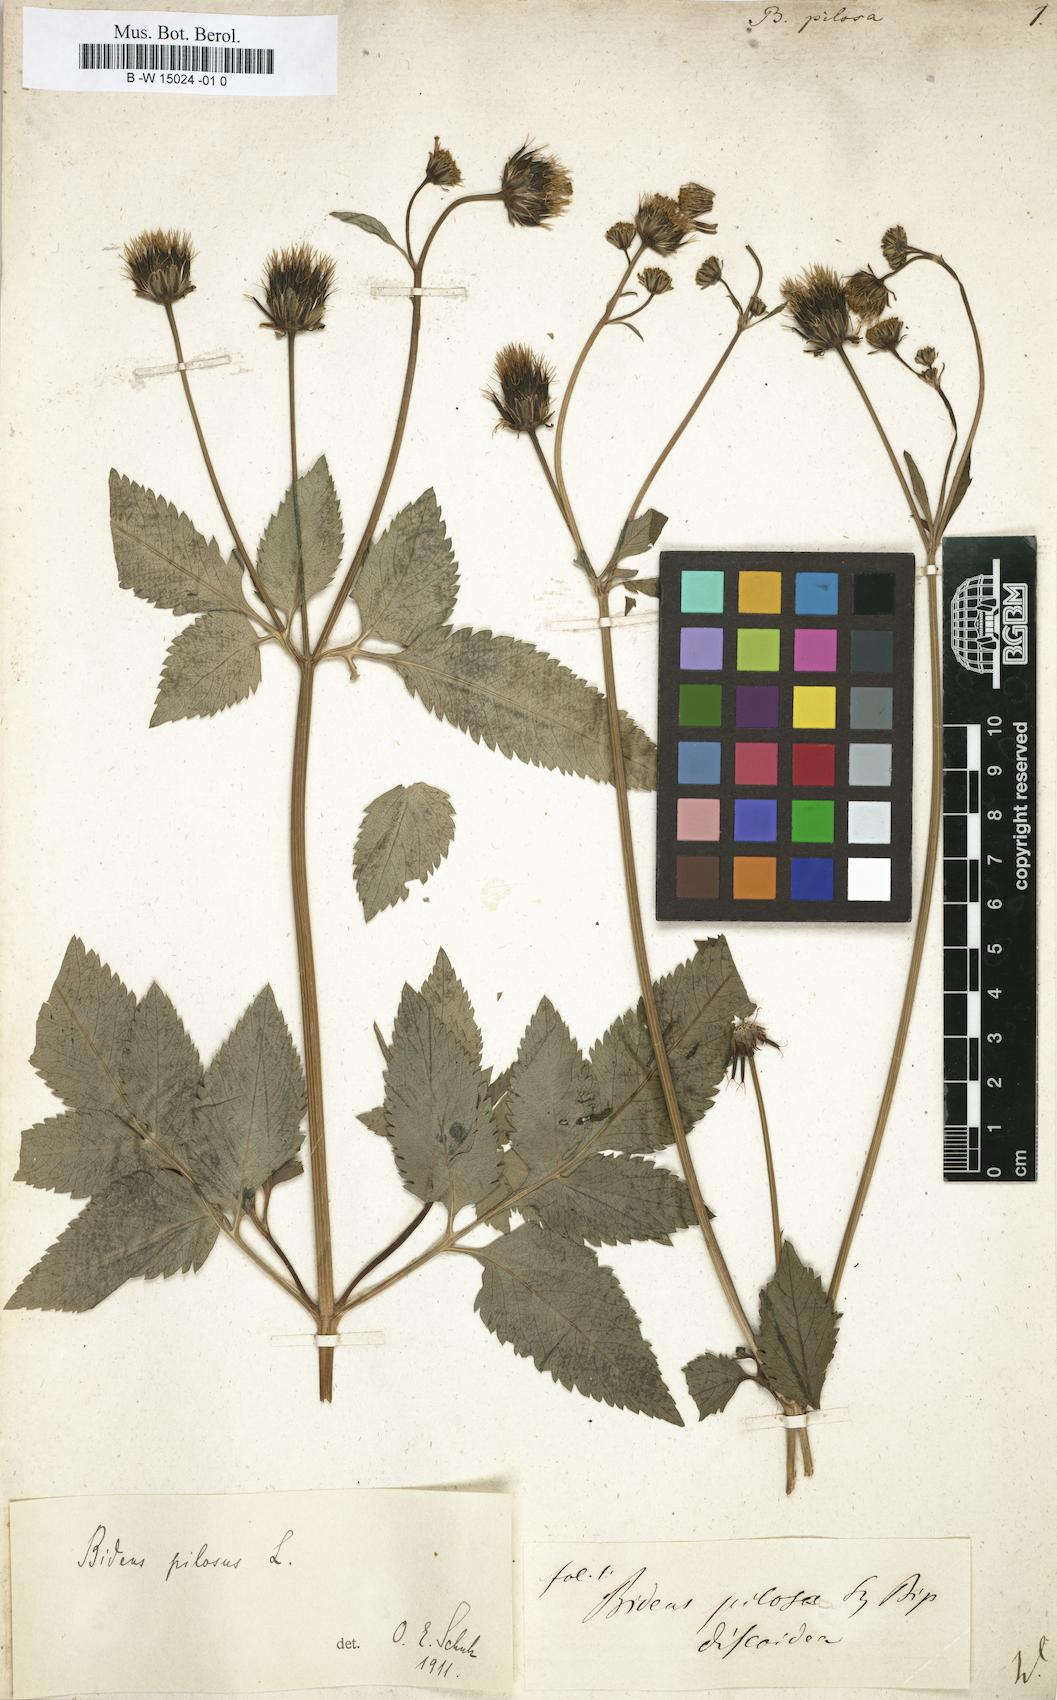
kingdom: Plantae
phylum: Tracheophyta
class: Magnoliopsida
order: Asterales
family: Asteraceae
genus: Bidens
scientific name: Bidens pilosa
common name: Black-jack
